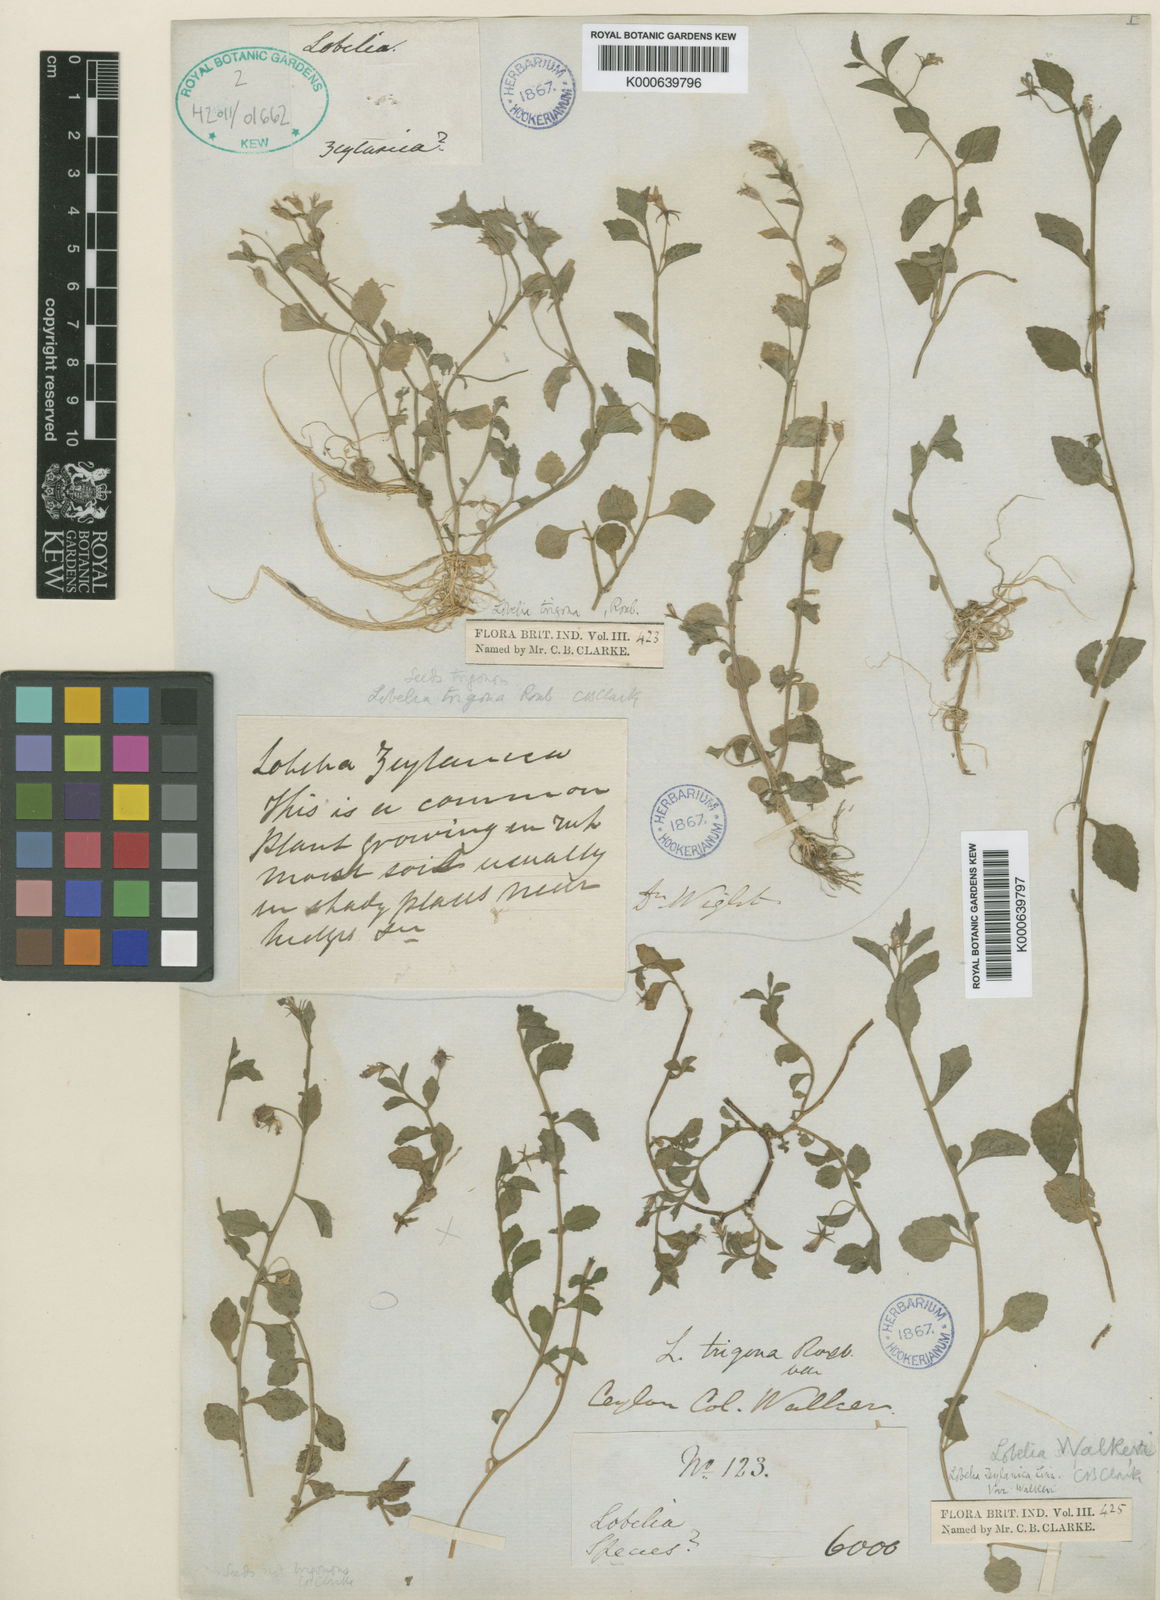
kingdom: Plantae
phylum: Tracheophyta
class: Magnoliopsida
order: Asterales
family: Campanulaceae
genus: Lobelia
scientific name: Lobelia walkeri
